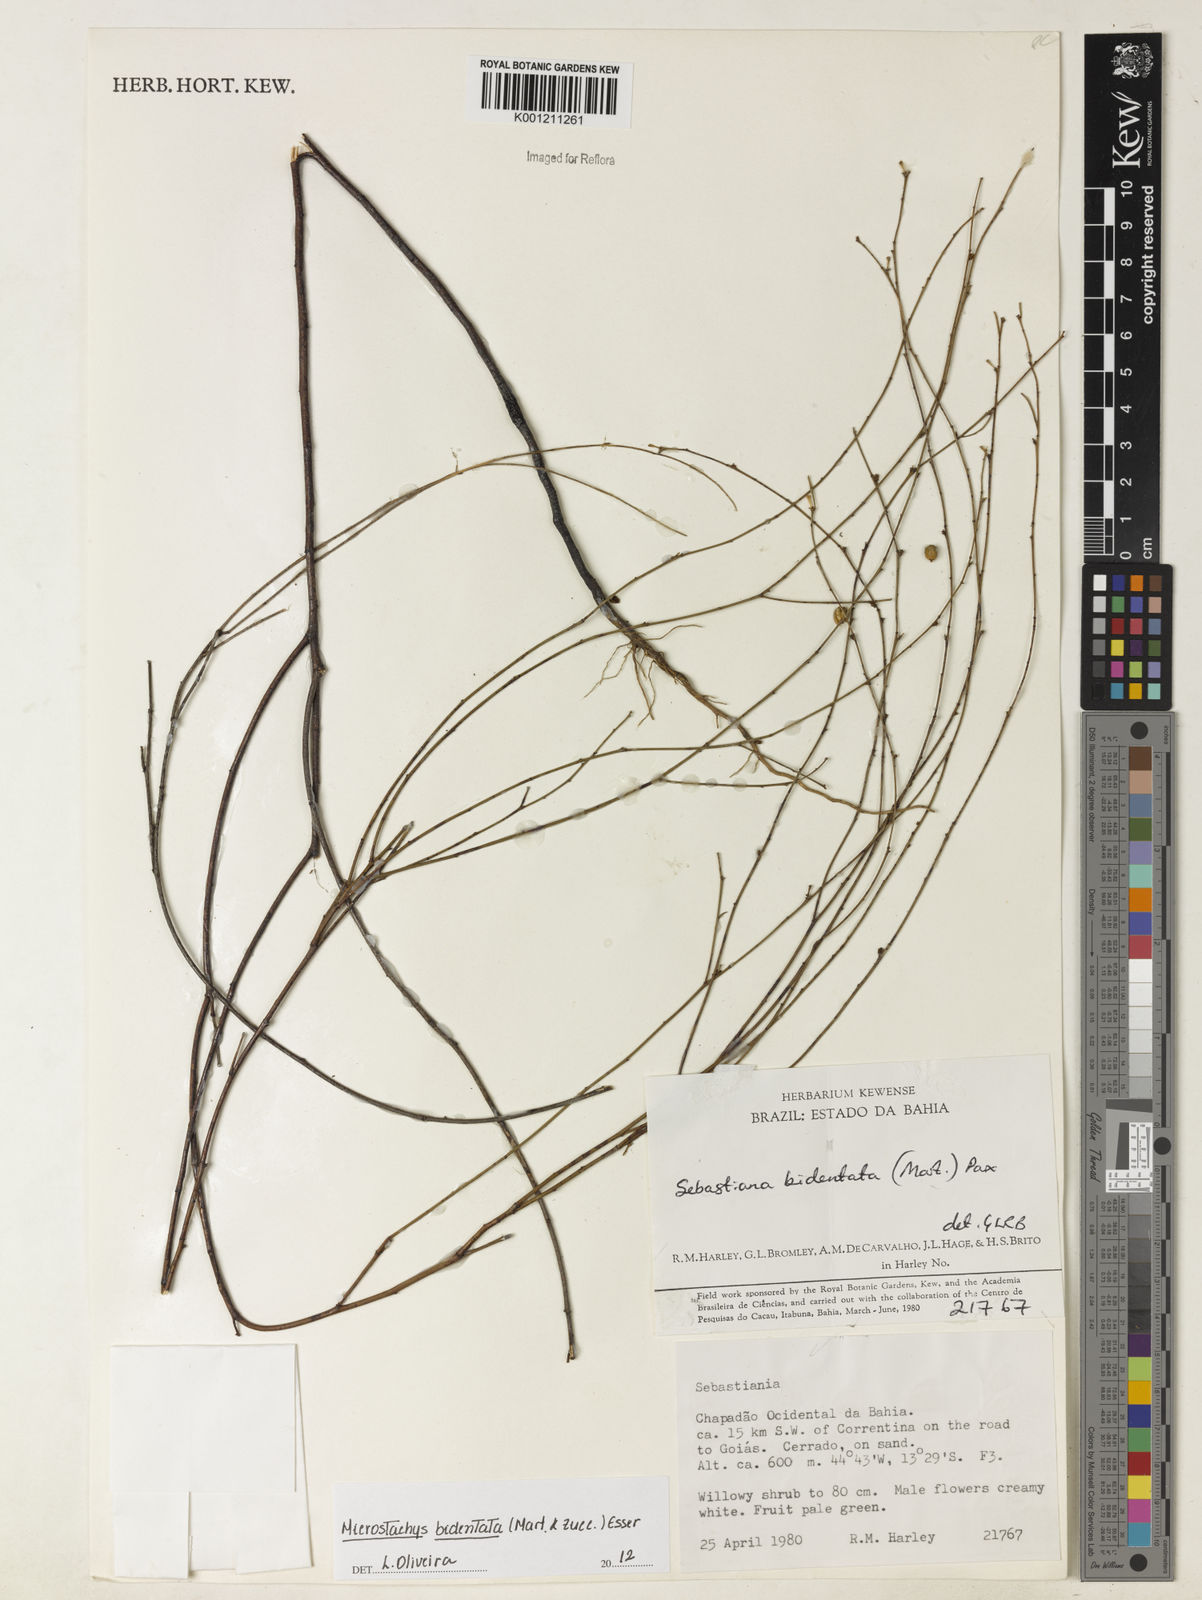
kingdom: Plantae
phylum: Tracheophyta
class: Magnoliopsida
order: Malpighiales
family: Euphorbiaceae
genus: Microstachys
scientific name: Microstachys bidentata
